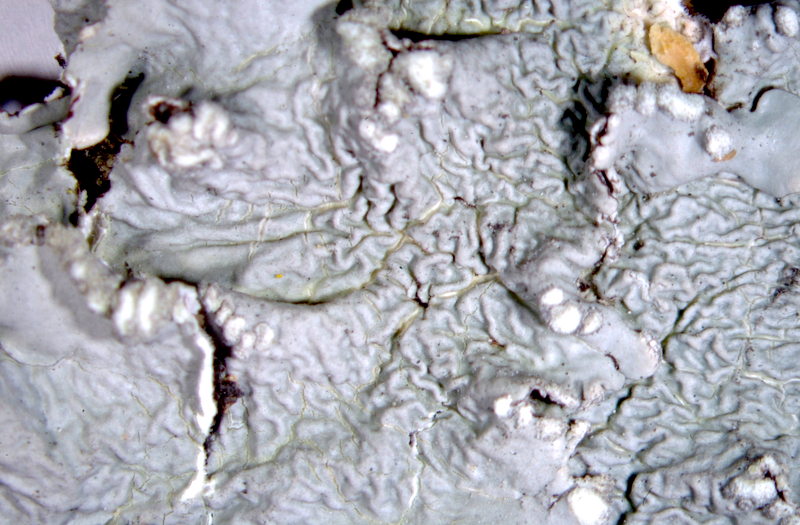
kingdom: Fungi
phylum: Ascomycota
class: Lecanoromycetes
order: Lecanorales
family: Parmeliaceae
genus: Parmotrema
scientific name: Parmotrema austrosinense
